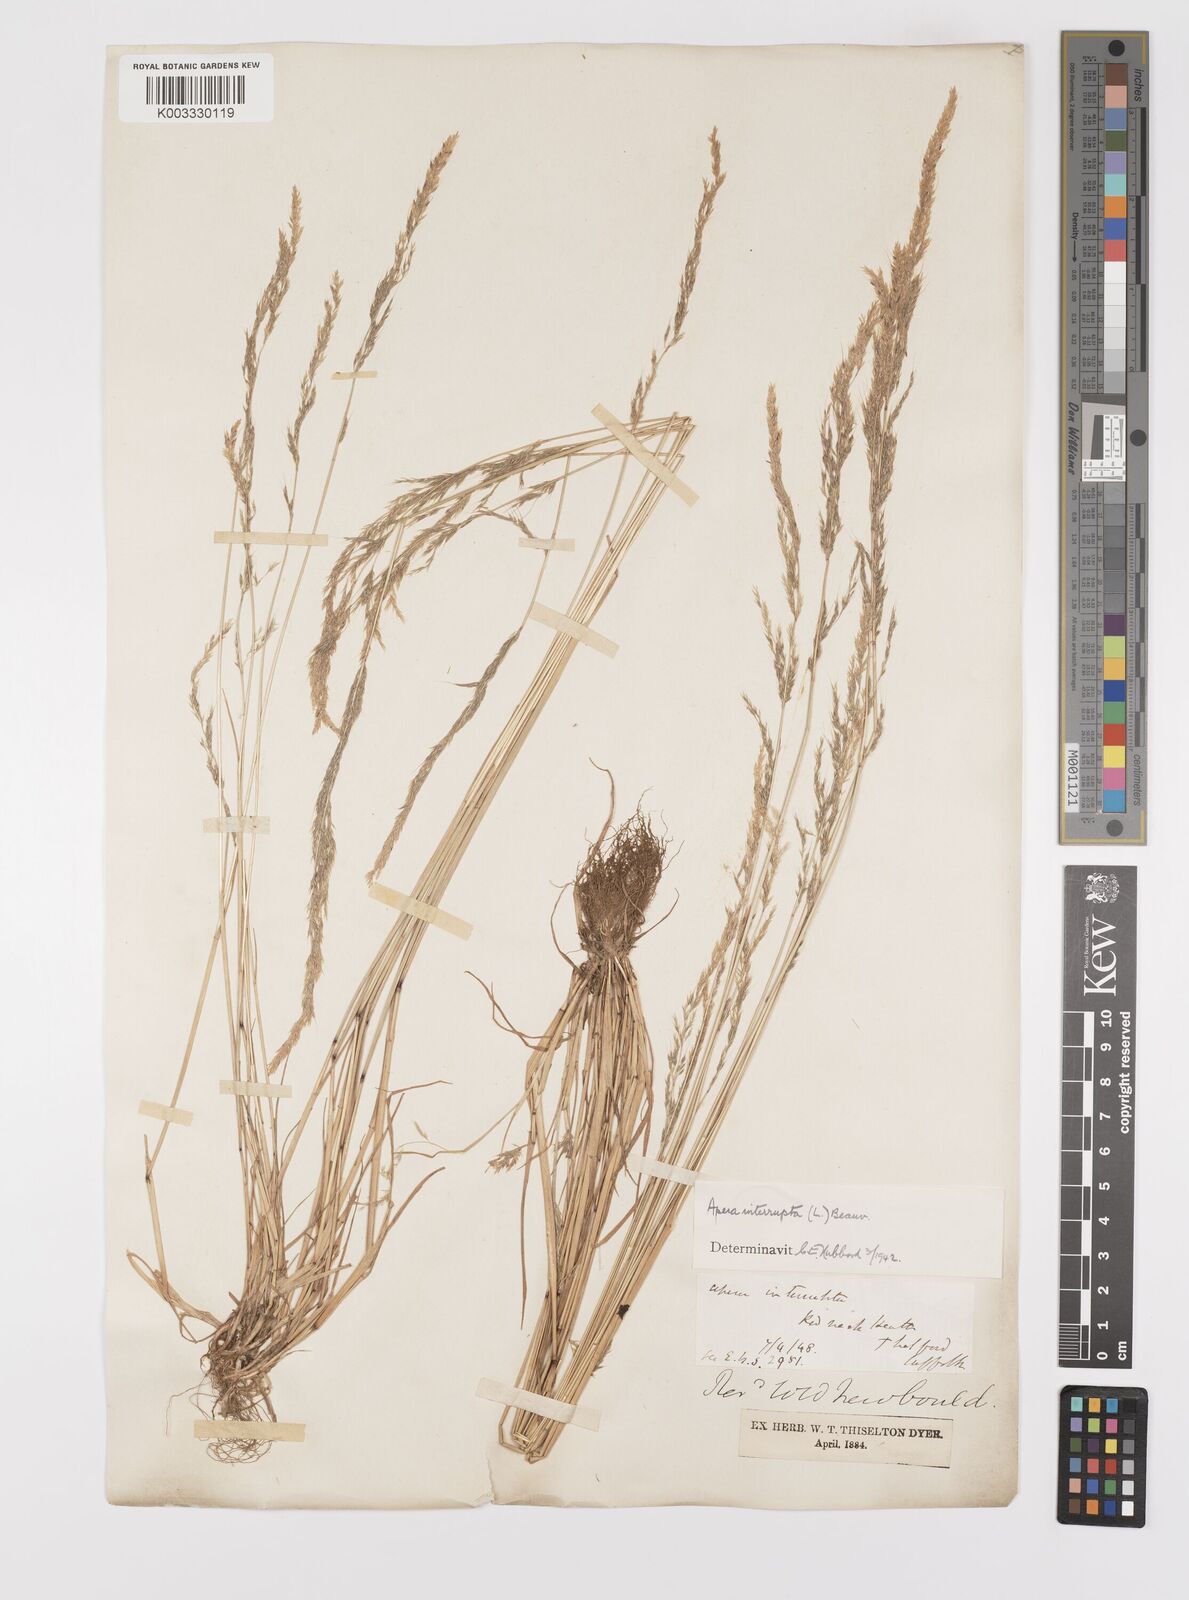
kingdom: Plantae
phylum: Tracheophyta
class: Liliopsida
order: Poales
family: Poaceae
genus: Apera
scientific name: Apera interrupta
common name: Dense silky-bent
